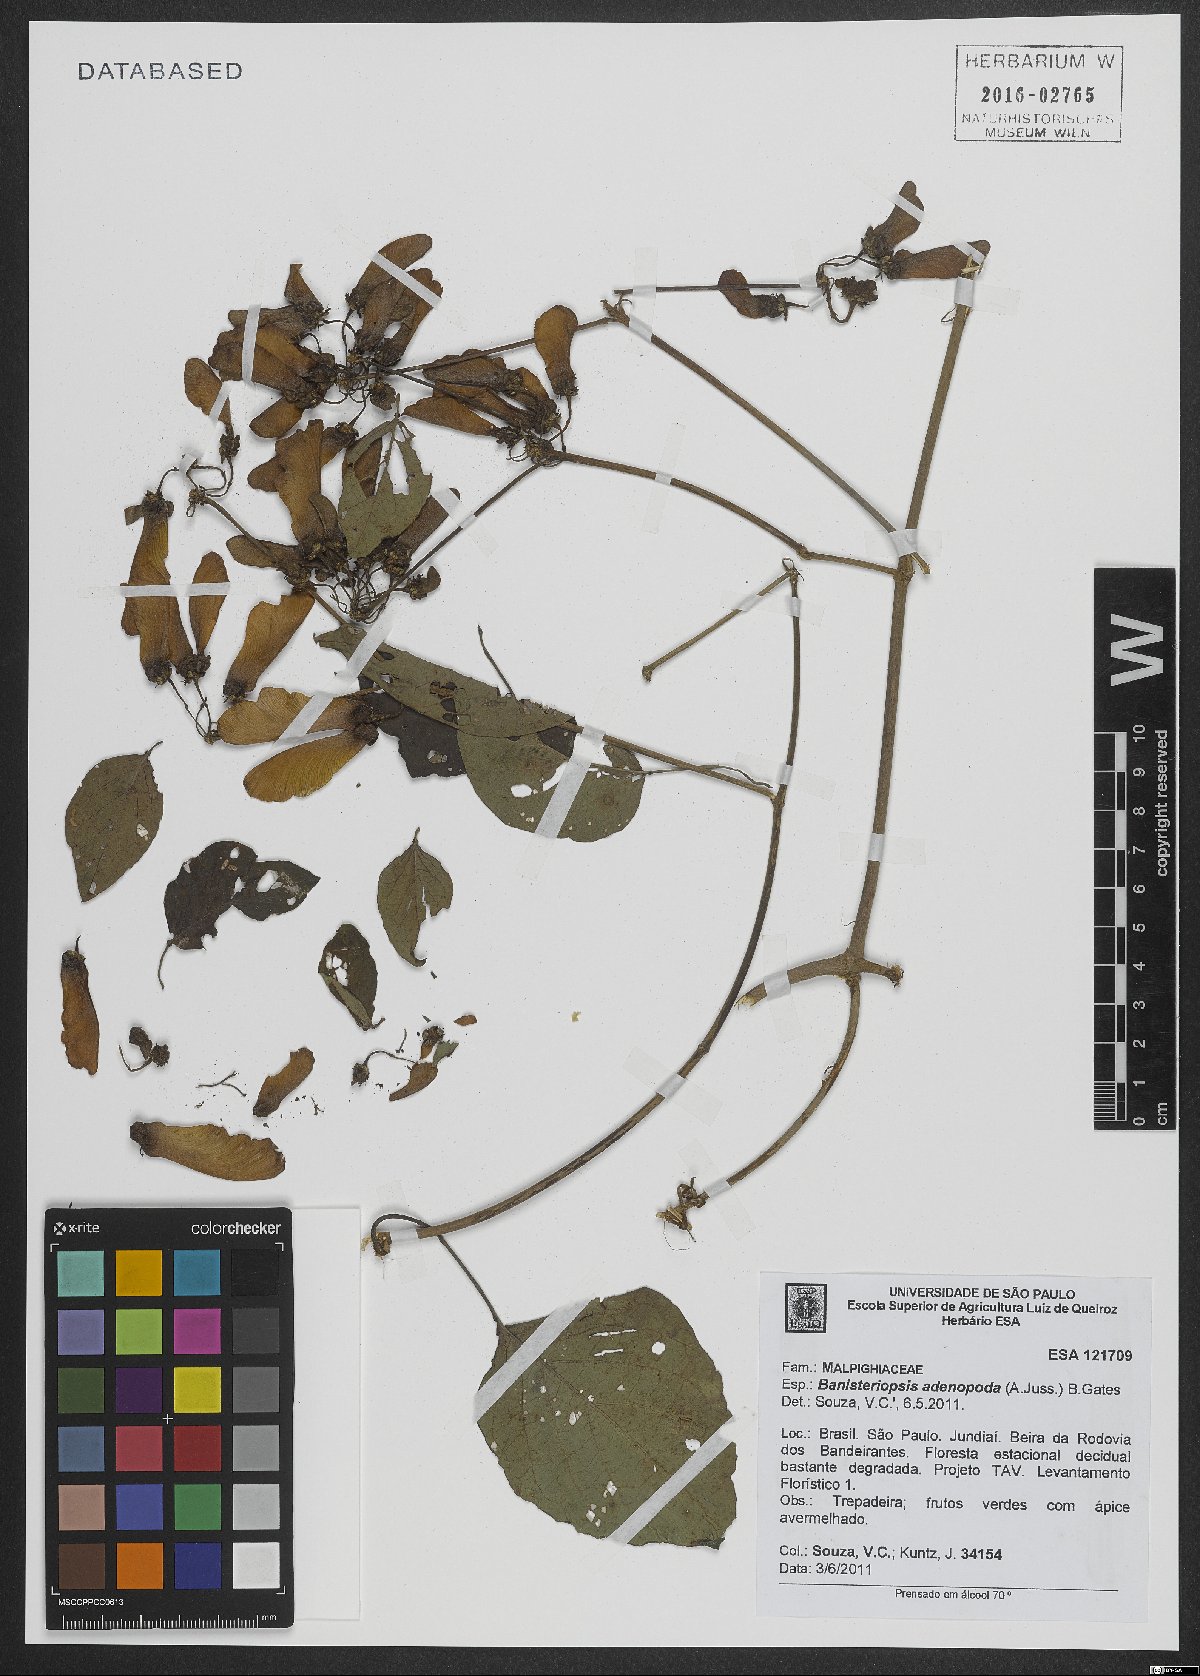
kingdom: Plantae
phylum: Tracheophyta
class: Magnoliopsida
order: Malpighiales
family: Malpighiaceae
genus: Banisteriopsis
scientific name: Banisteriopsis adenopoda
